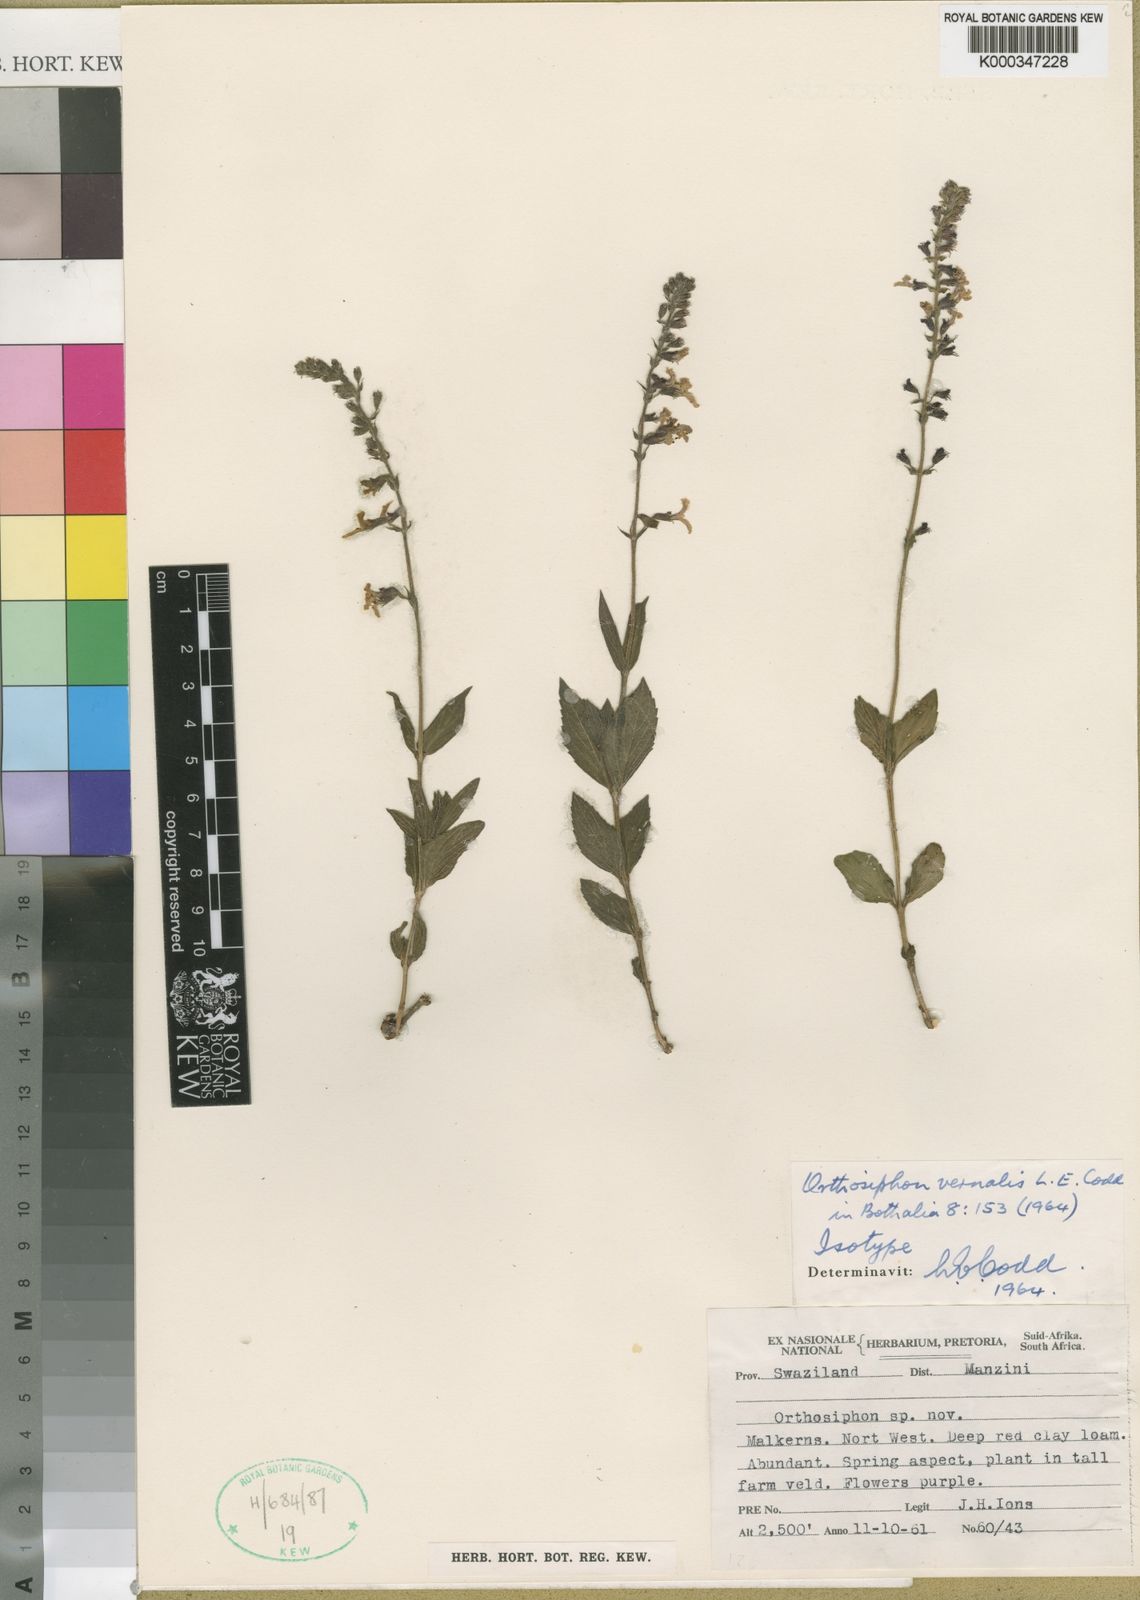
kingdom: Plantae
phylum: Tracheophyta
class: Magnoliopsida
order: Lamiales
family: Lamiaceae
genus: Orthosiphon
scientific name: Orthosiphon vernalis
